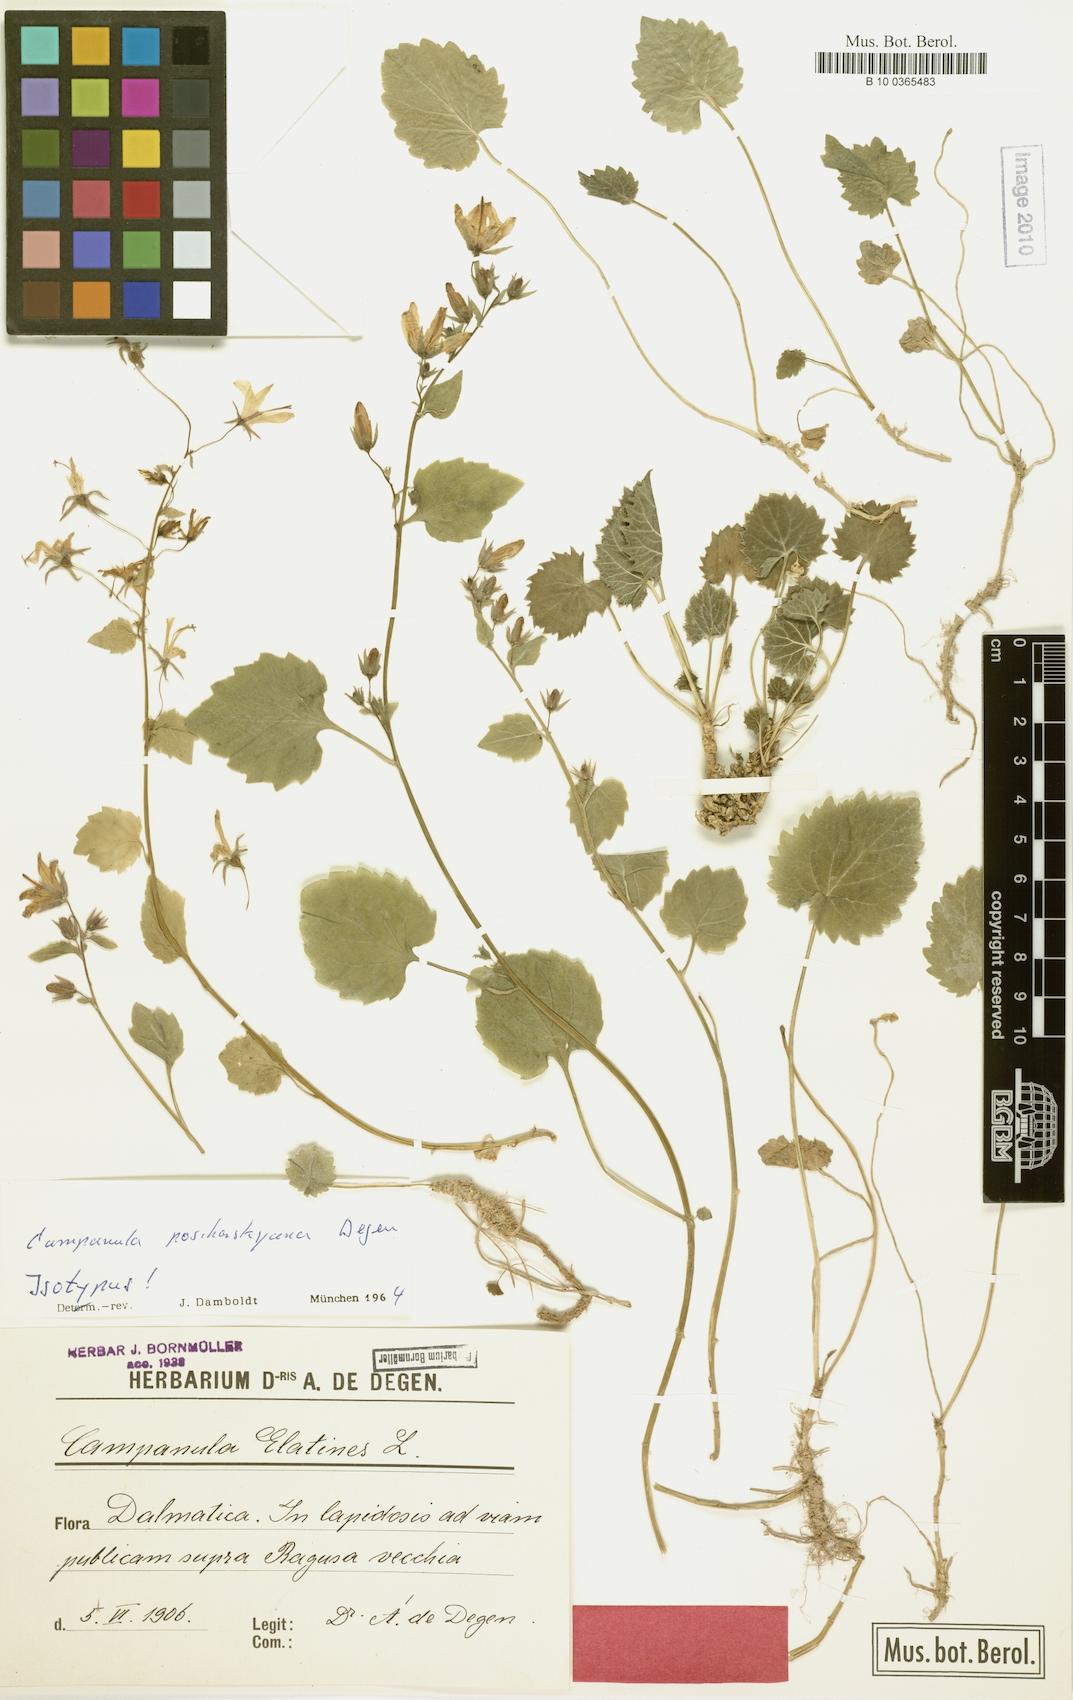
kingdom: Plantae
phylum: Tracheophyta
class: Magnoliopsida
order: Asterales
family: Campanulaceae
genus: Campanula
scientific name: Campanula poscharskyana
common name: Trailing bellflower
